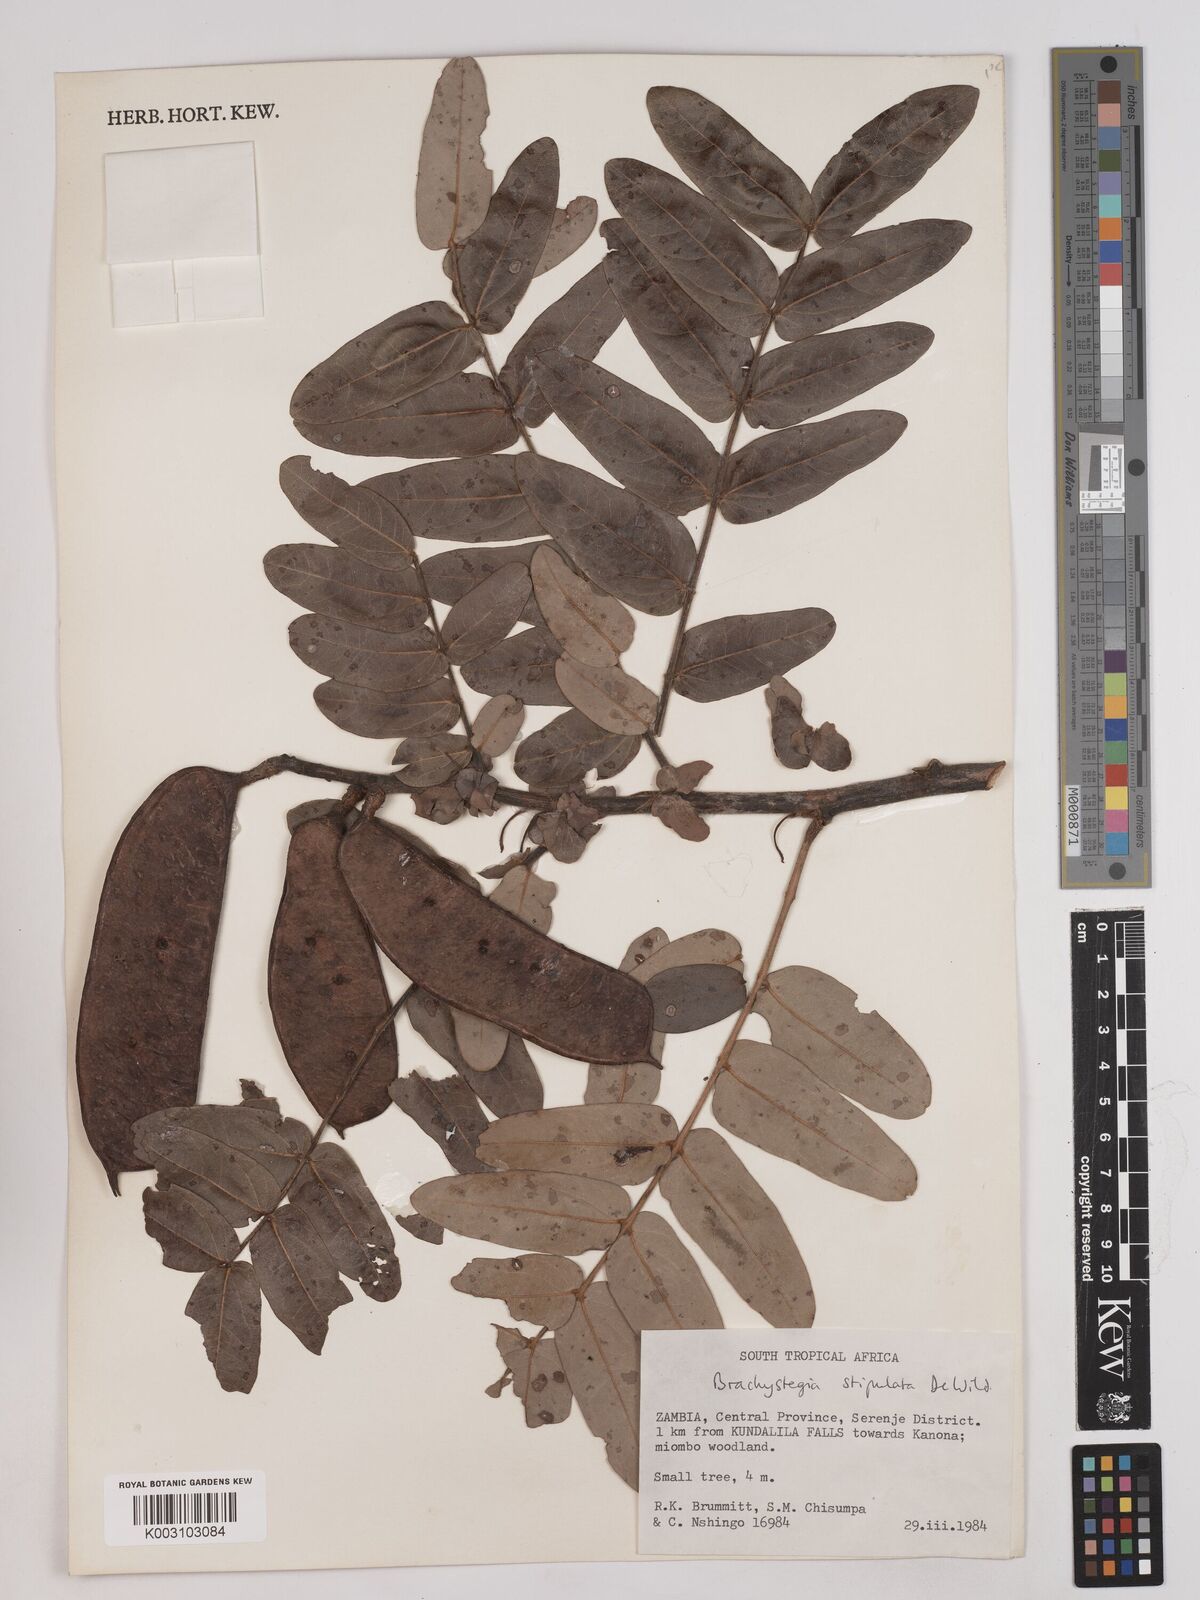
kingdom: Plantae
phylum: Tracheophyta
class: Magnoliopsida
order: Fabales
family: Fabaceae
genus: Brachystegia
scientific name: Brachystegia stipulata
